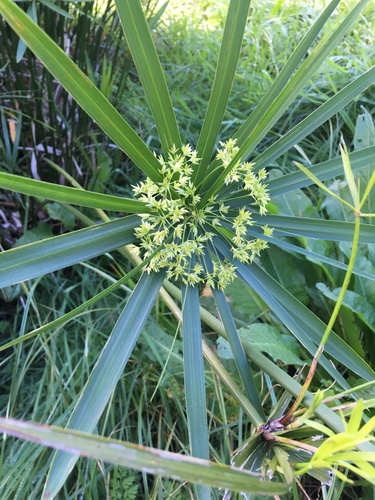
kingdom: Plantae
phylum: Tracheophyta
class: Liliopsida
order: Poales
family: Cyperaceae
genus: Cyperus
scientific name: Cyperus
